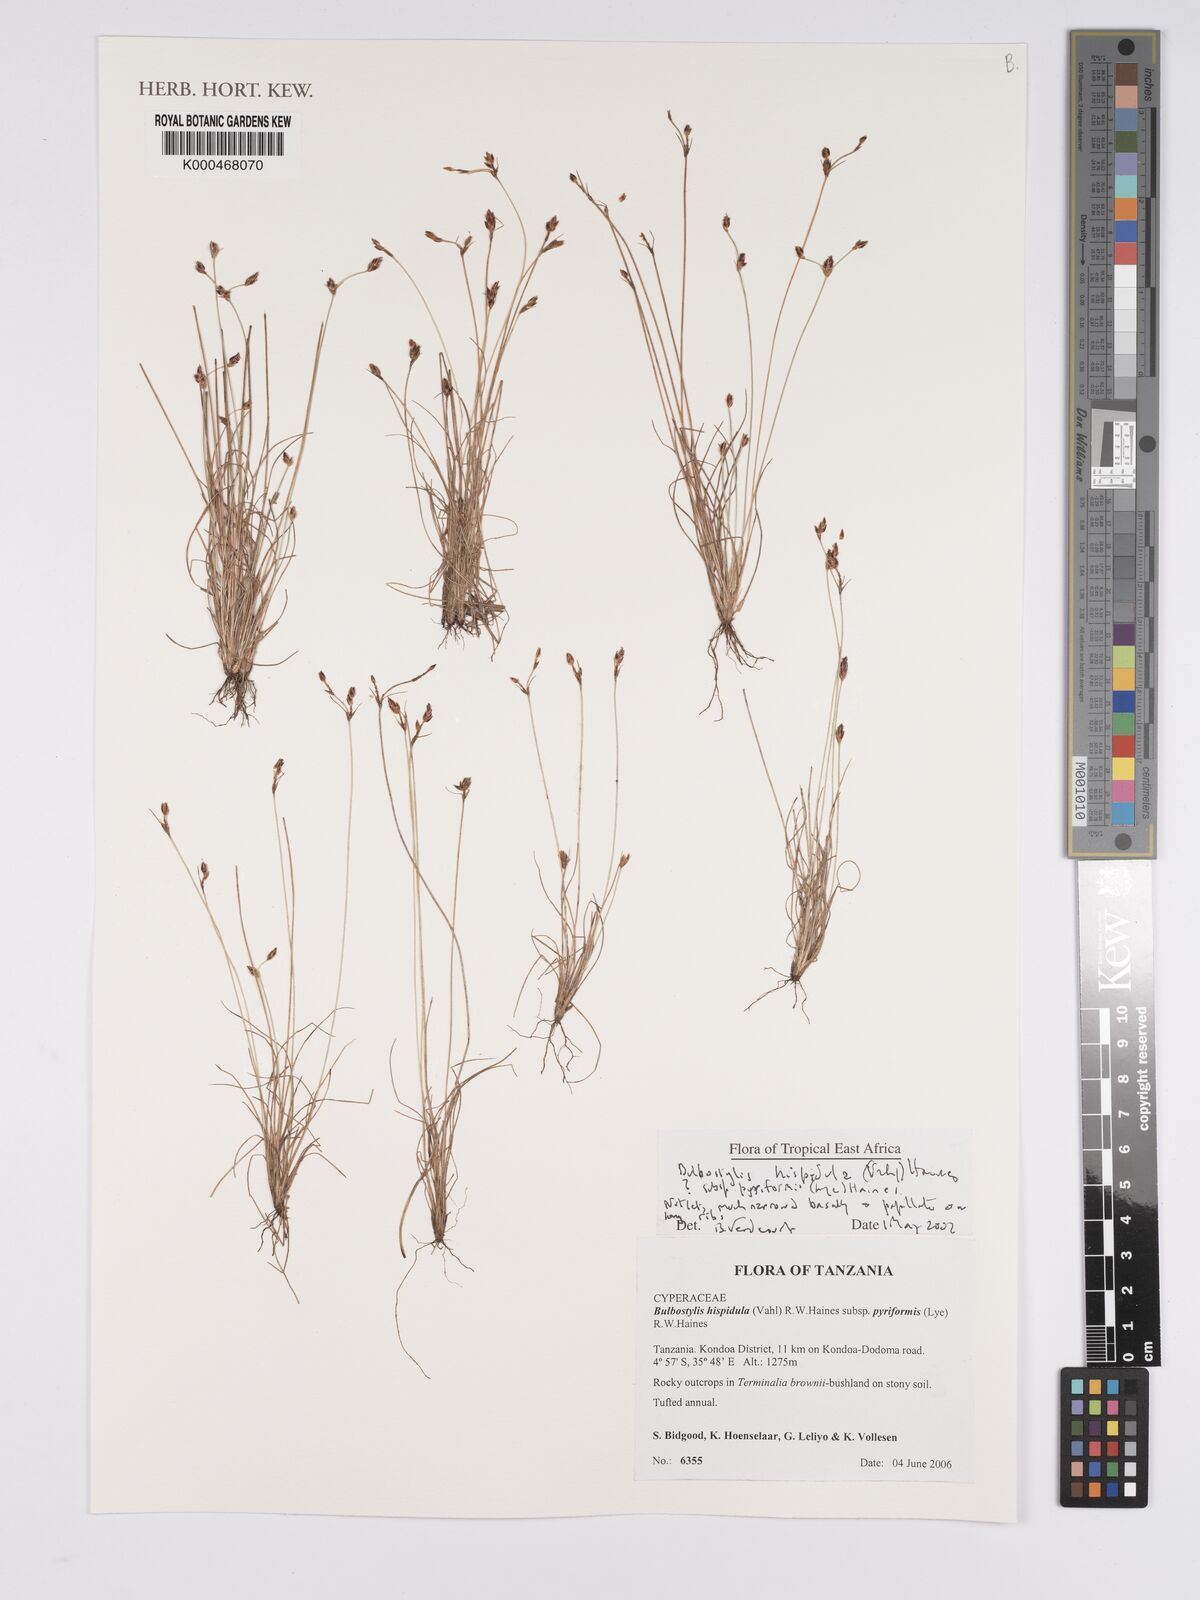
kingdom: Plantae
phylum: Tracheophyta
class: Liliopsida
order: Poales
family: Cyperaceae
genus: Bulbostylis
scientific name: Bulbostylis hispidula
